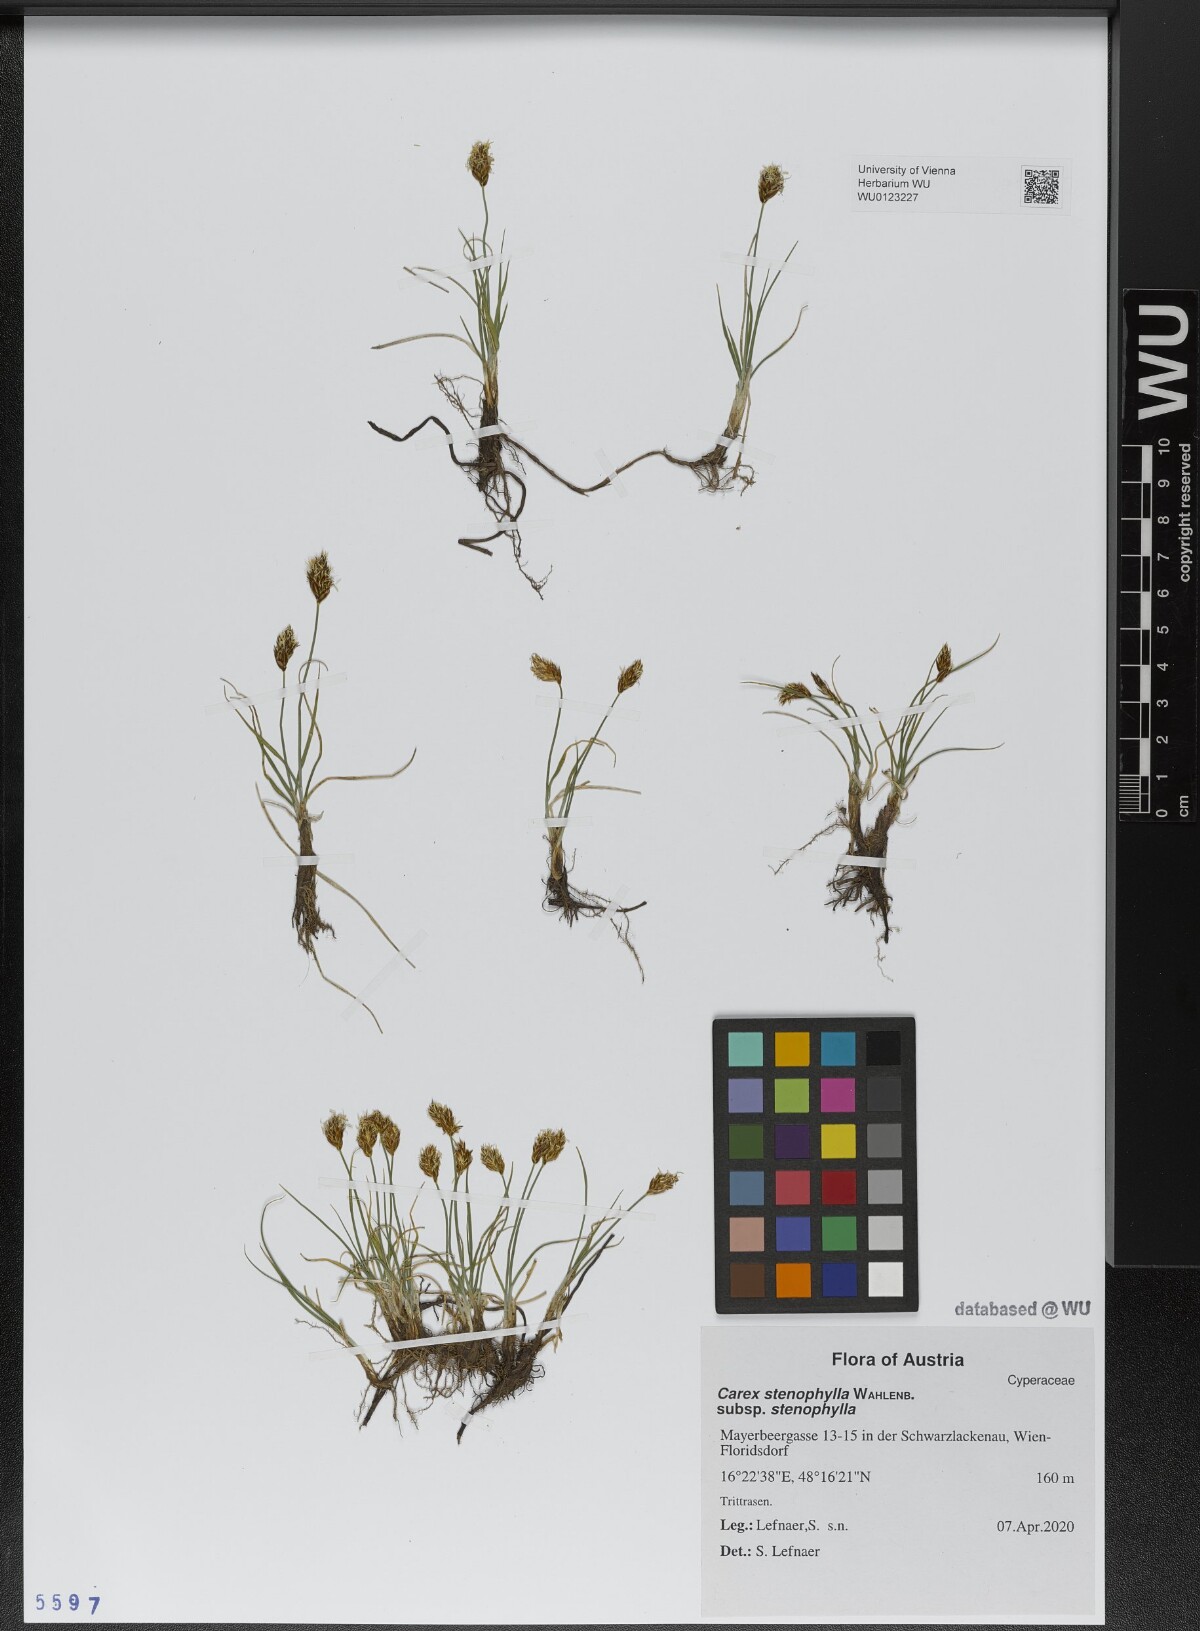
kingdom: Plantae
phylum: Tracheophyta
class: Liliopsida
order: Poales
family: Cyperaceae
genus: Carex
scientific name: Carex stenophylla
